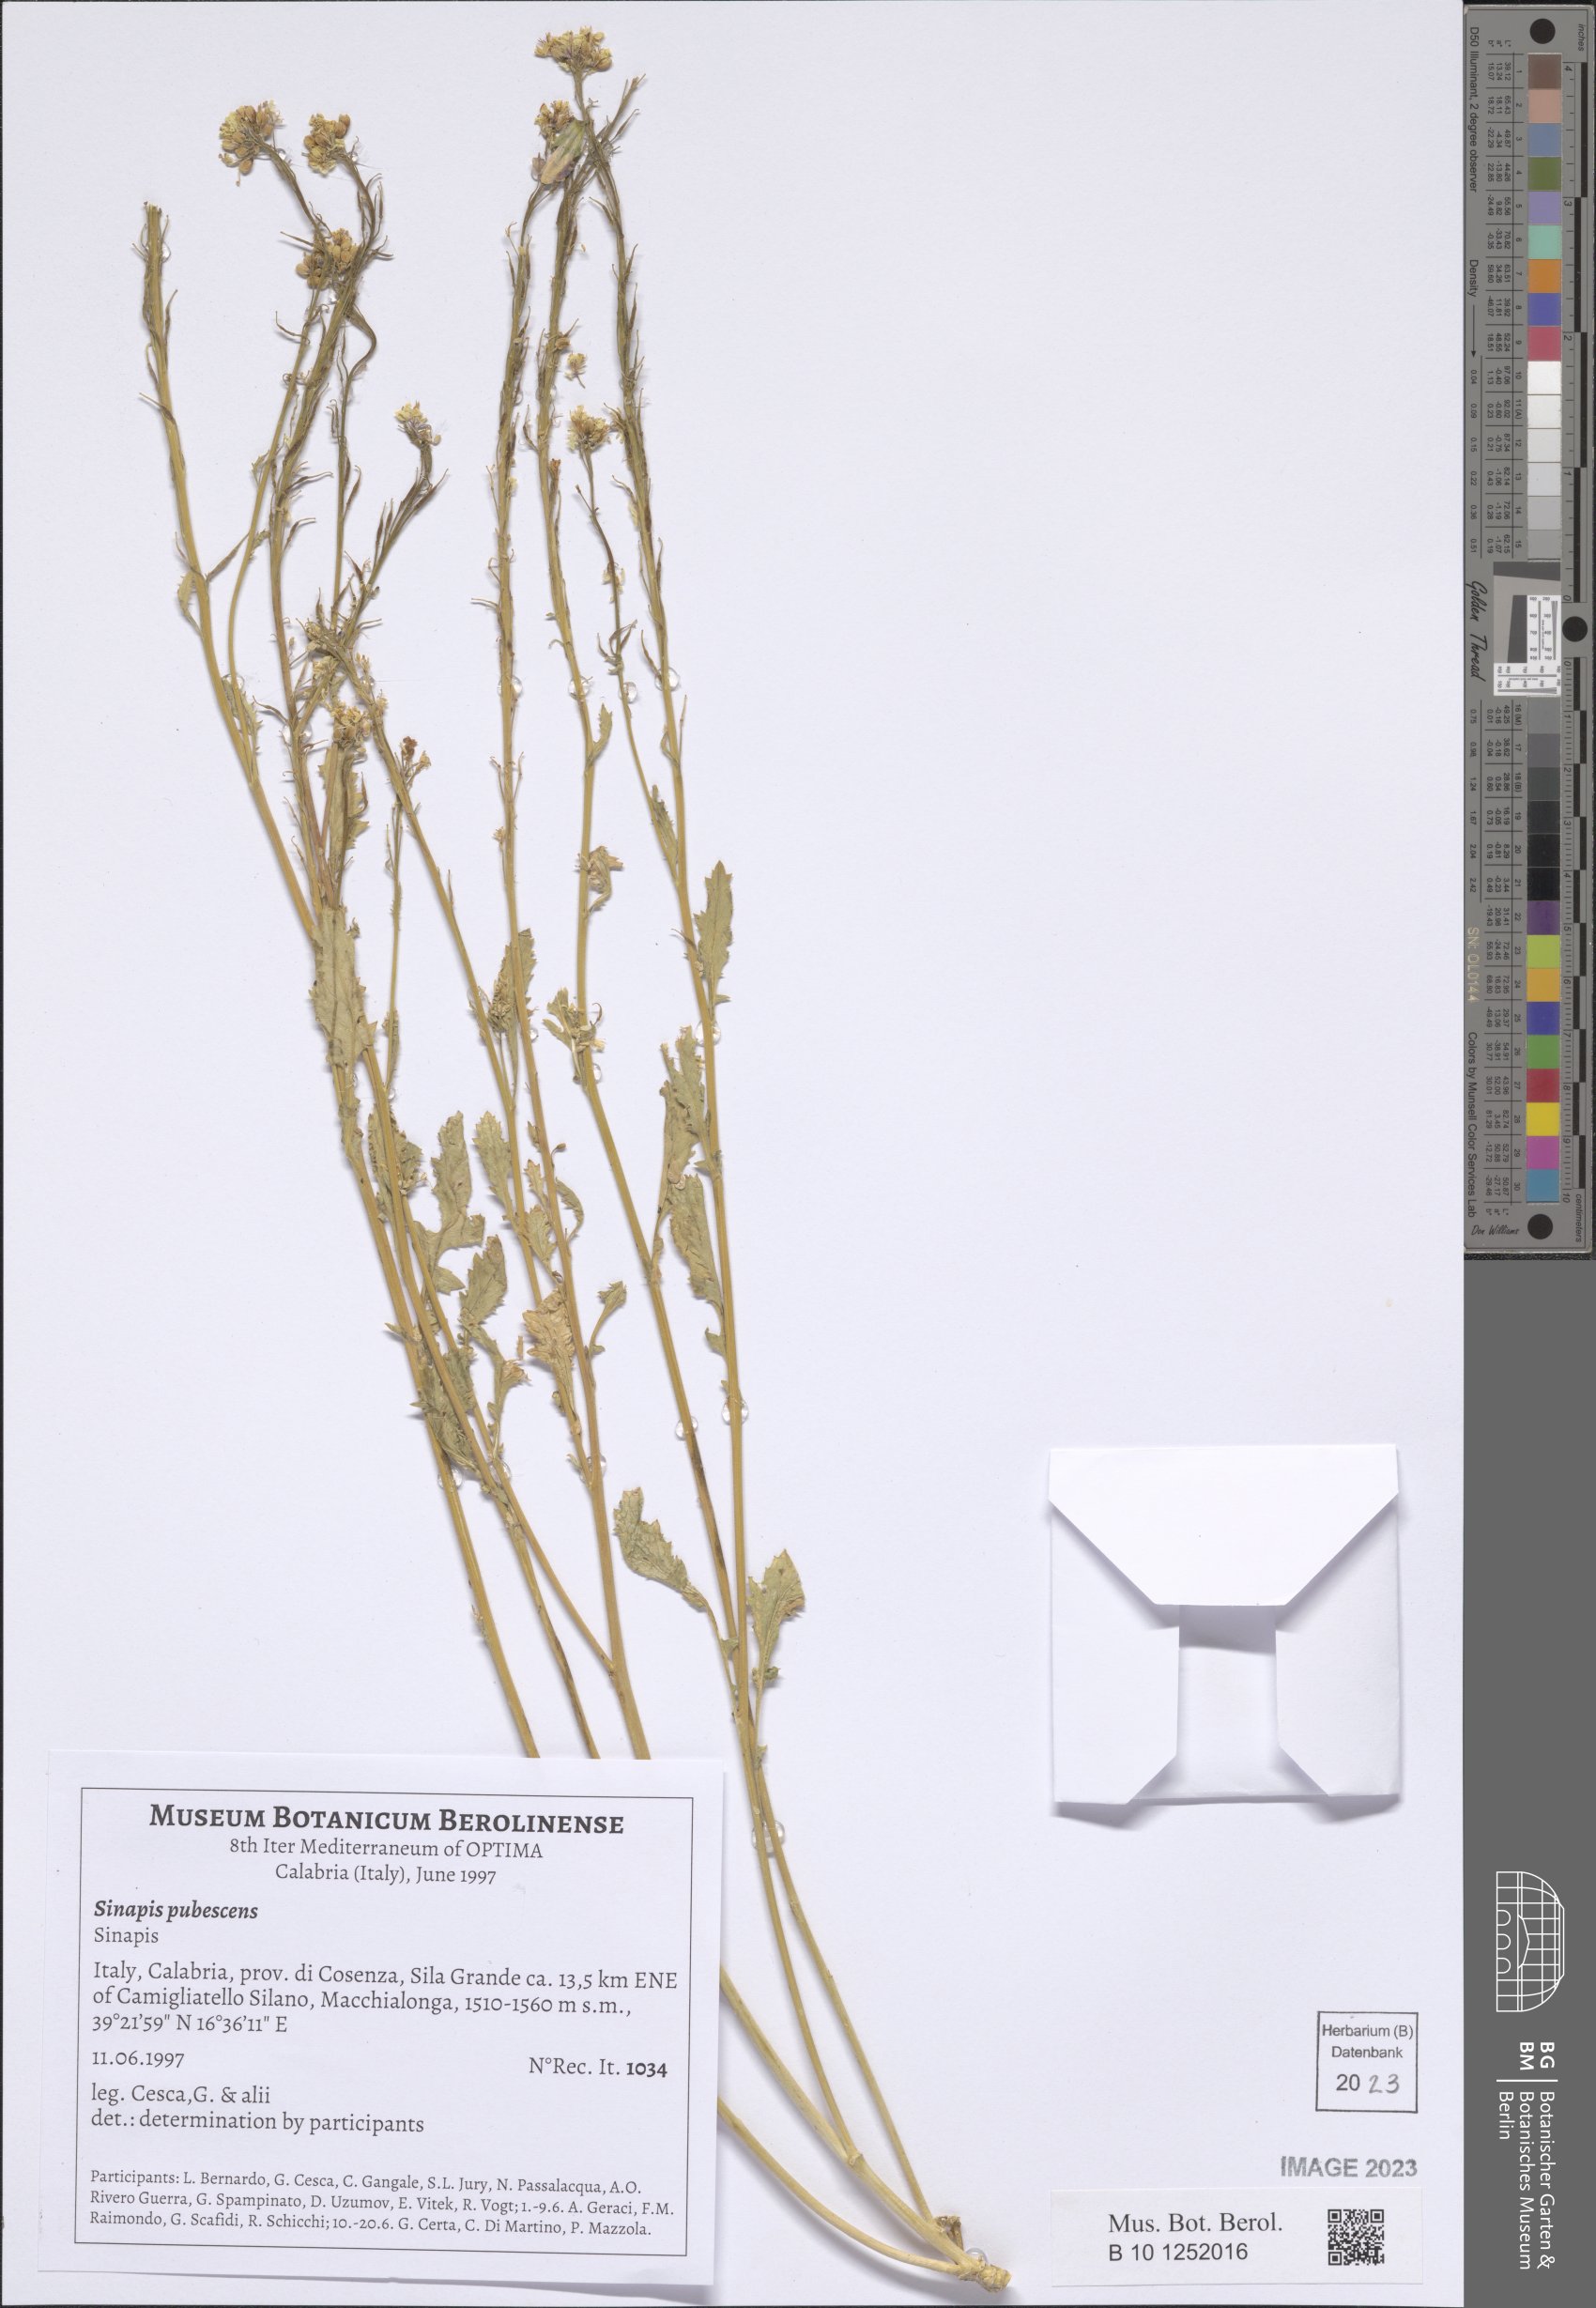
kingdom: Plantae
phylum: Tracheophyta
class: Magnoliopsida
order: Brassicales
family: Brassicaceae
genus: Sinapis
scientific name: Sinapis pubescens
